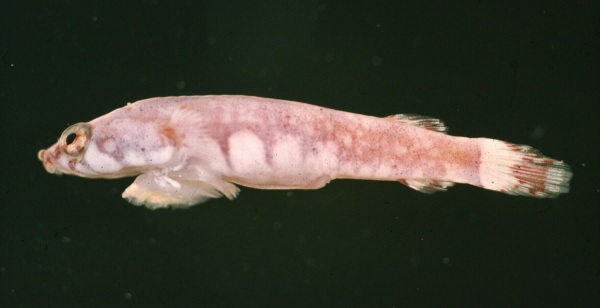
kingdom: Animalia
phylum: Chordata
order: Gobiesociformes
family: Gobiesocidae
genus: Diplecogaster
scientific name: Diplecogaster megalops
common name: Bigeye clingfish
